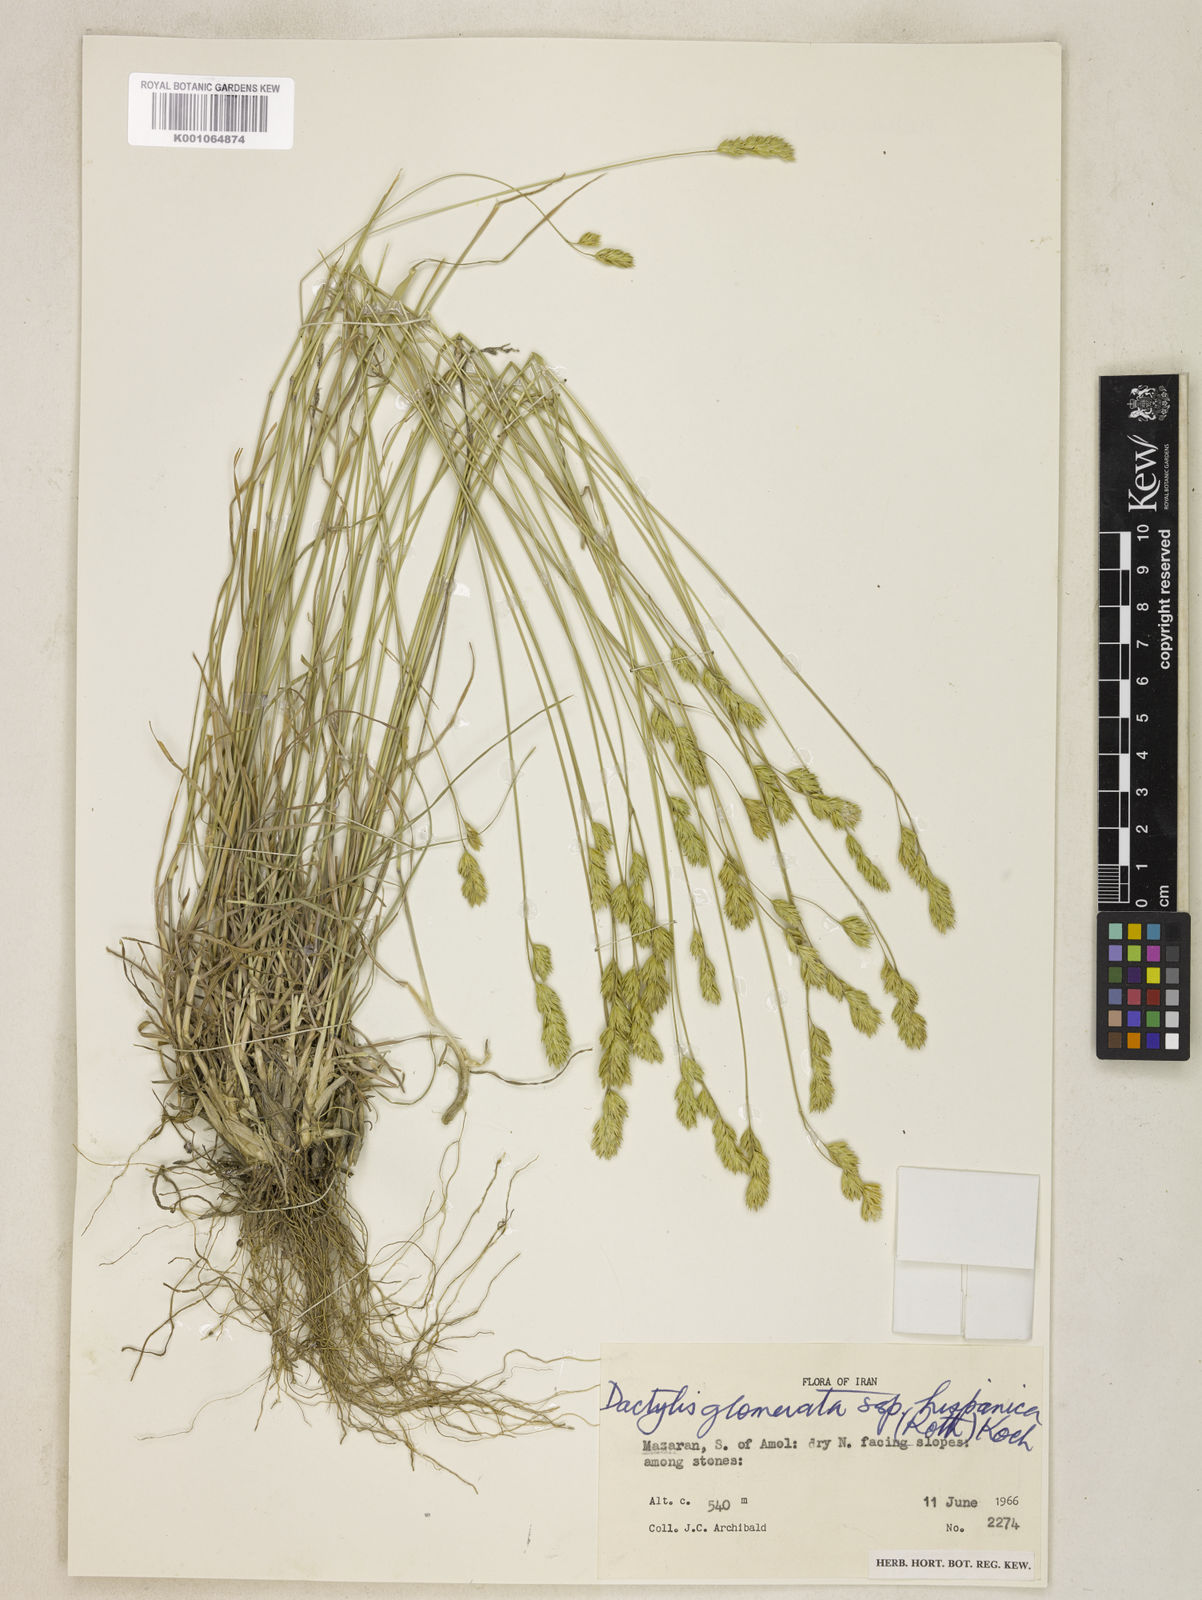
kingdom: Plantae
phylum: Tracheophyta
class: Liliopsida
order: Poales
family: Poaceae
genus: Dactylis
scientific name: Dactylis glomerata
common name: Orchardgrass
